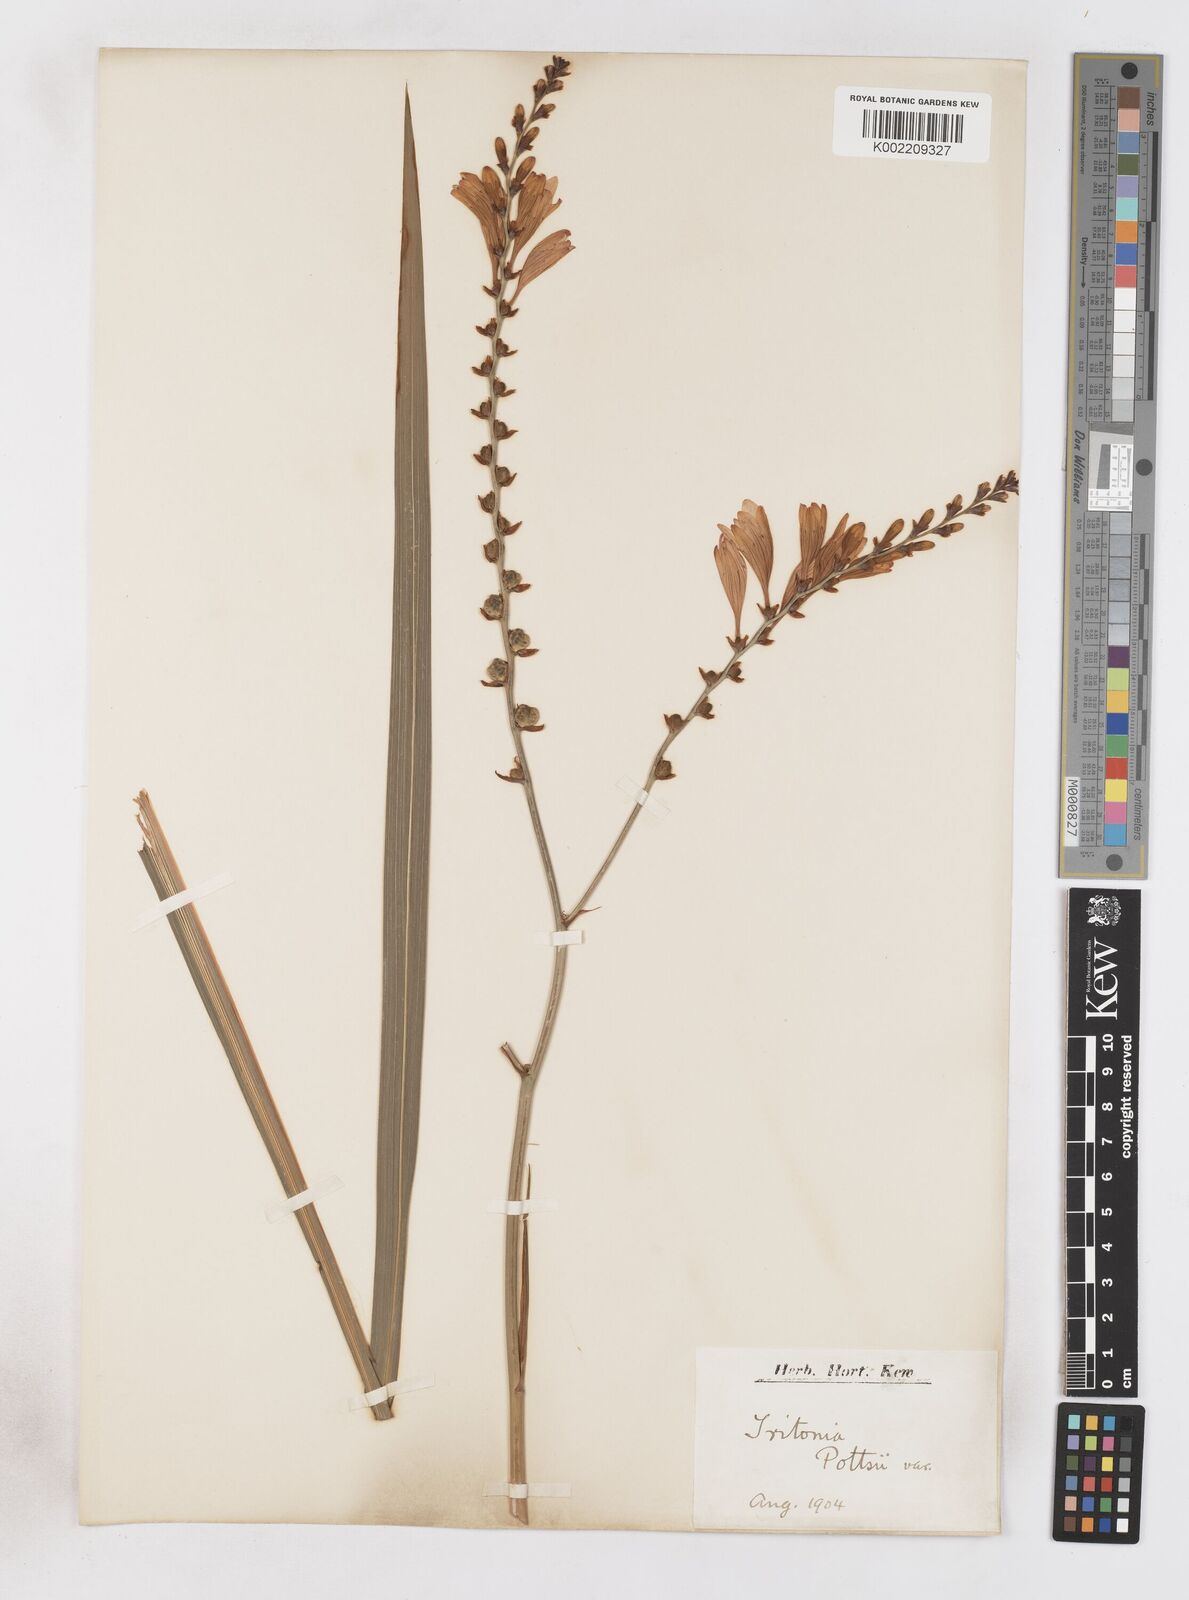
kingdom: Plantae
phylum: Tracheophyta
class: Liliopsida
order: Asparagales
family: Iridaceae
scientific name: Iridaceae
